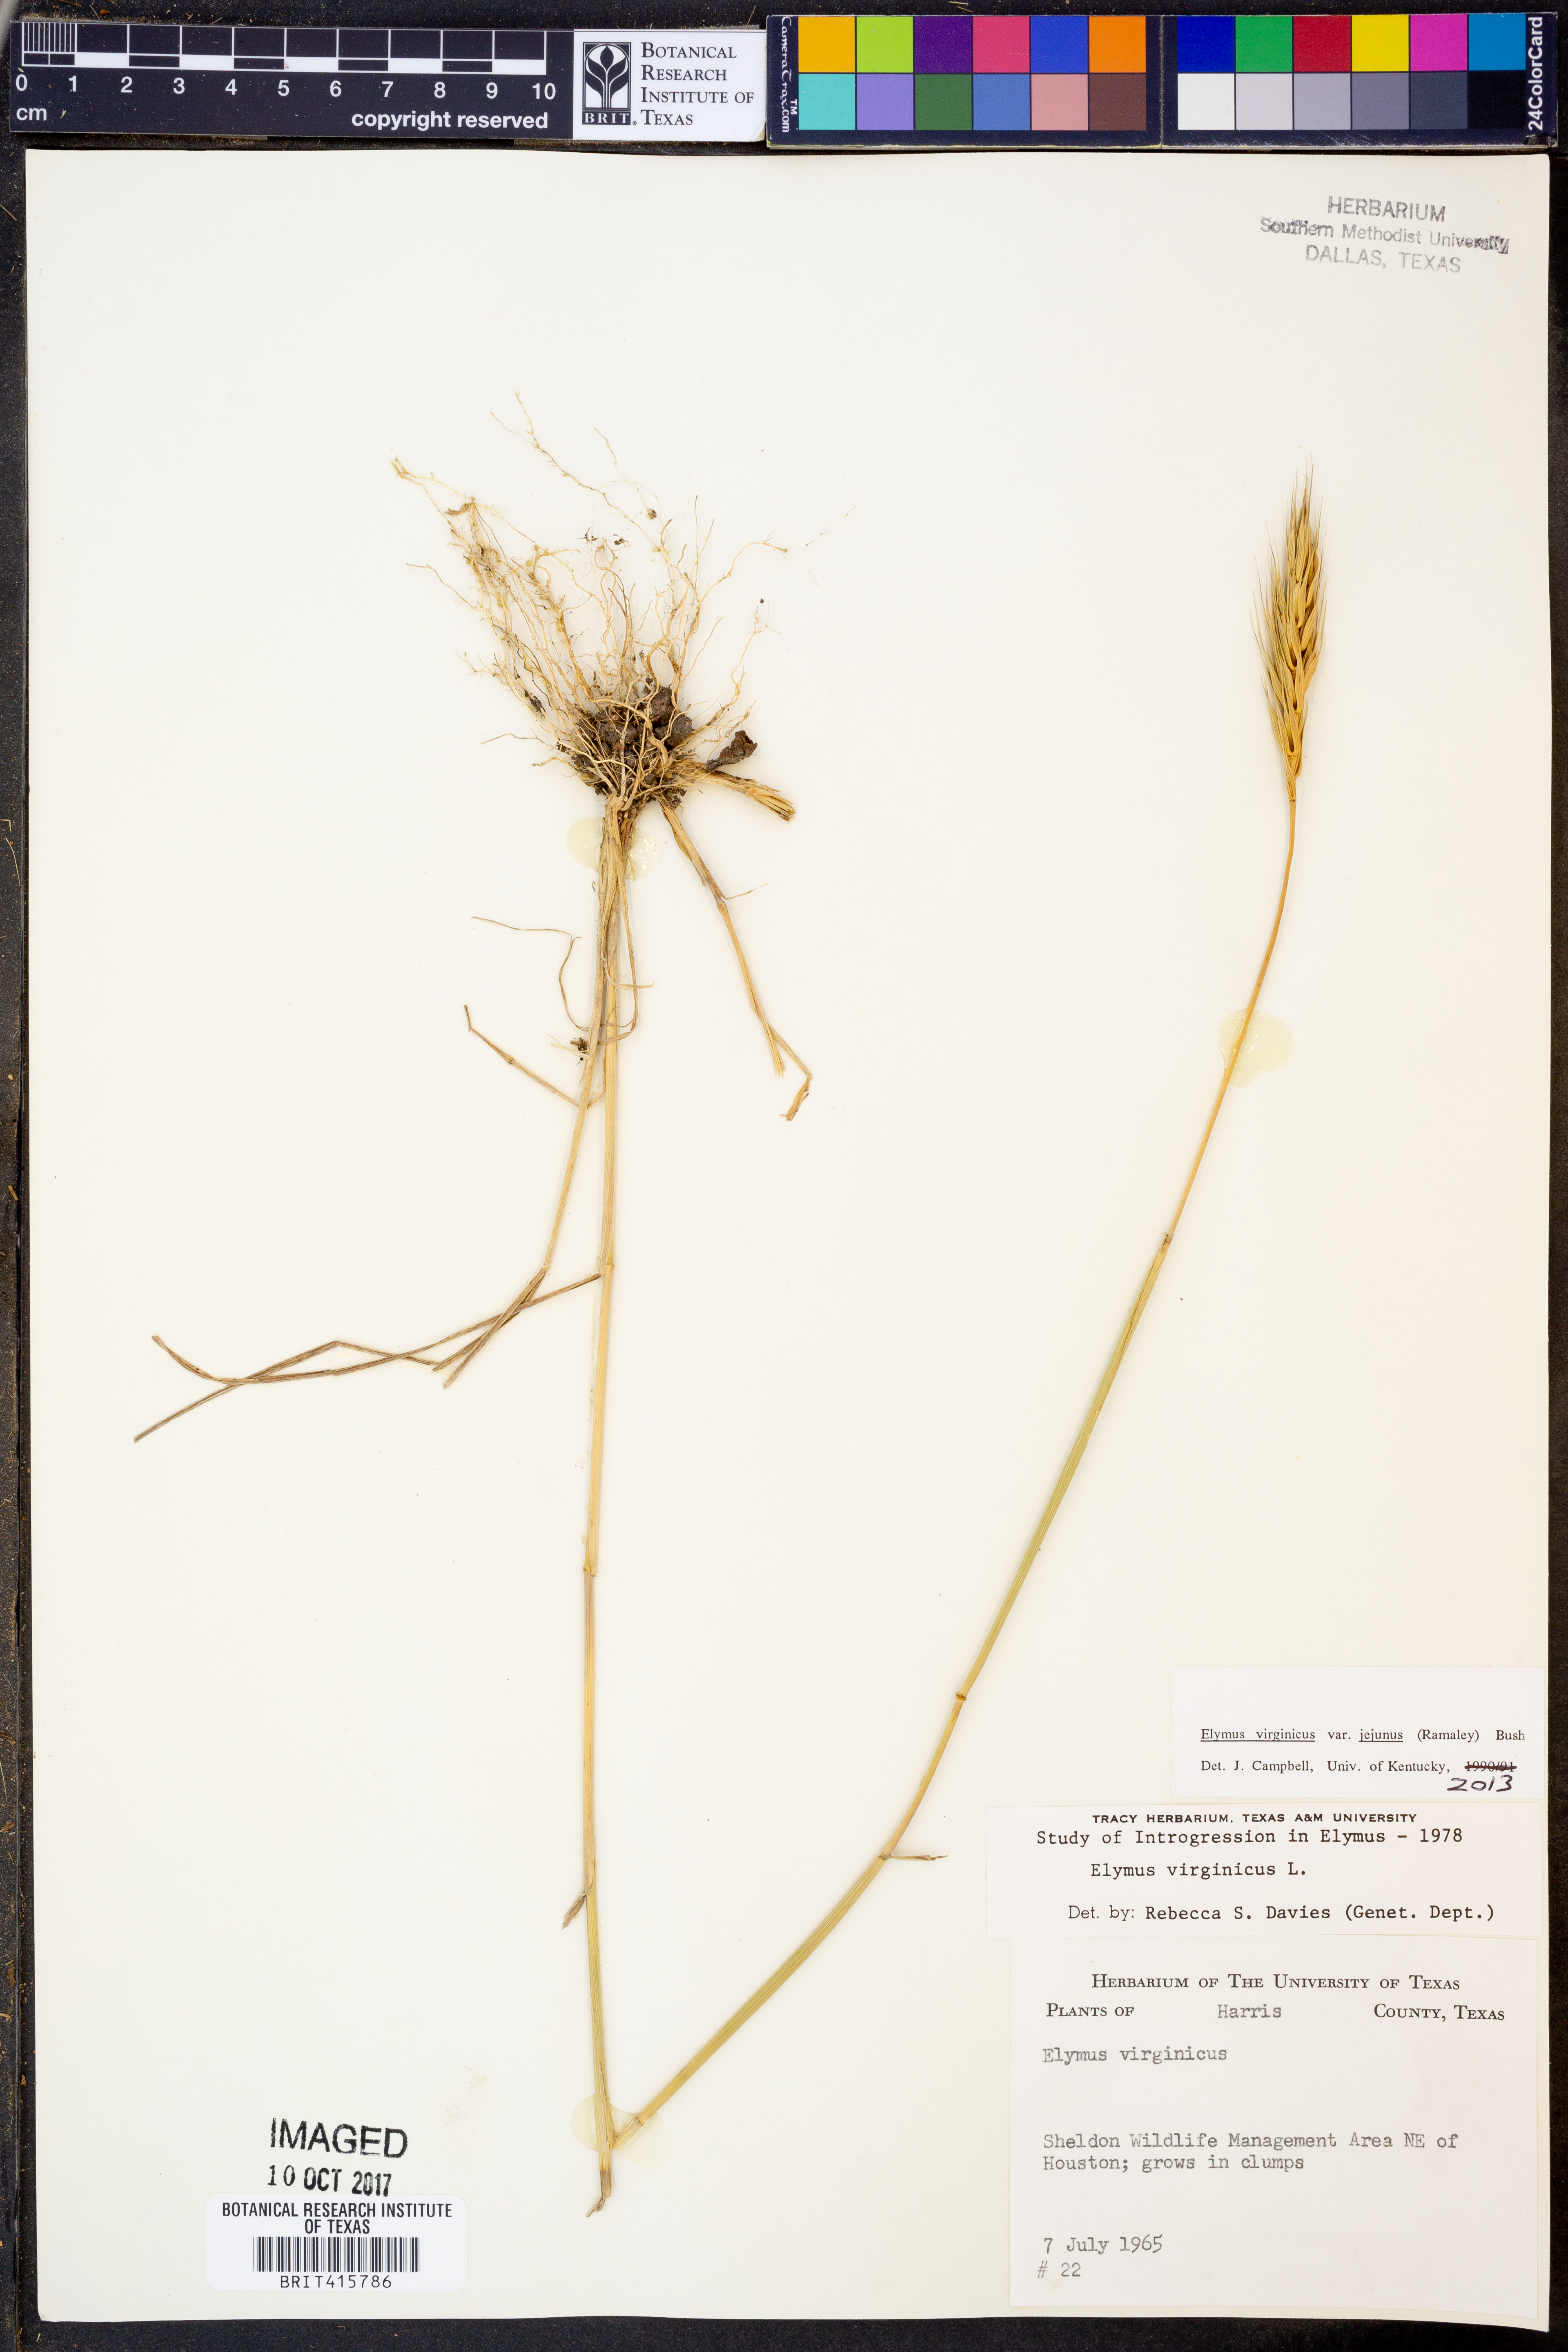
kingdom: Plantae
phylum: Tracheophyta
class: Liliopsida
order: Poales
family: Poaceae
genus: Elymus
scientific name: Elymus virginicus
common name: Common eastern wildrye
